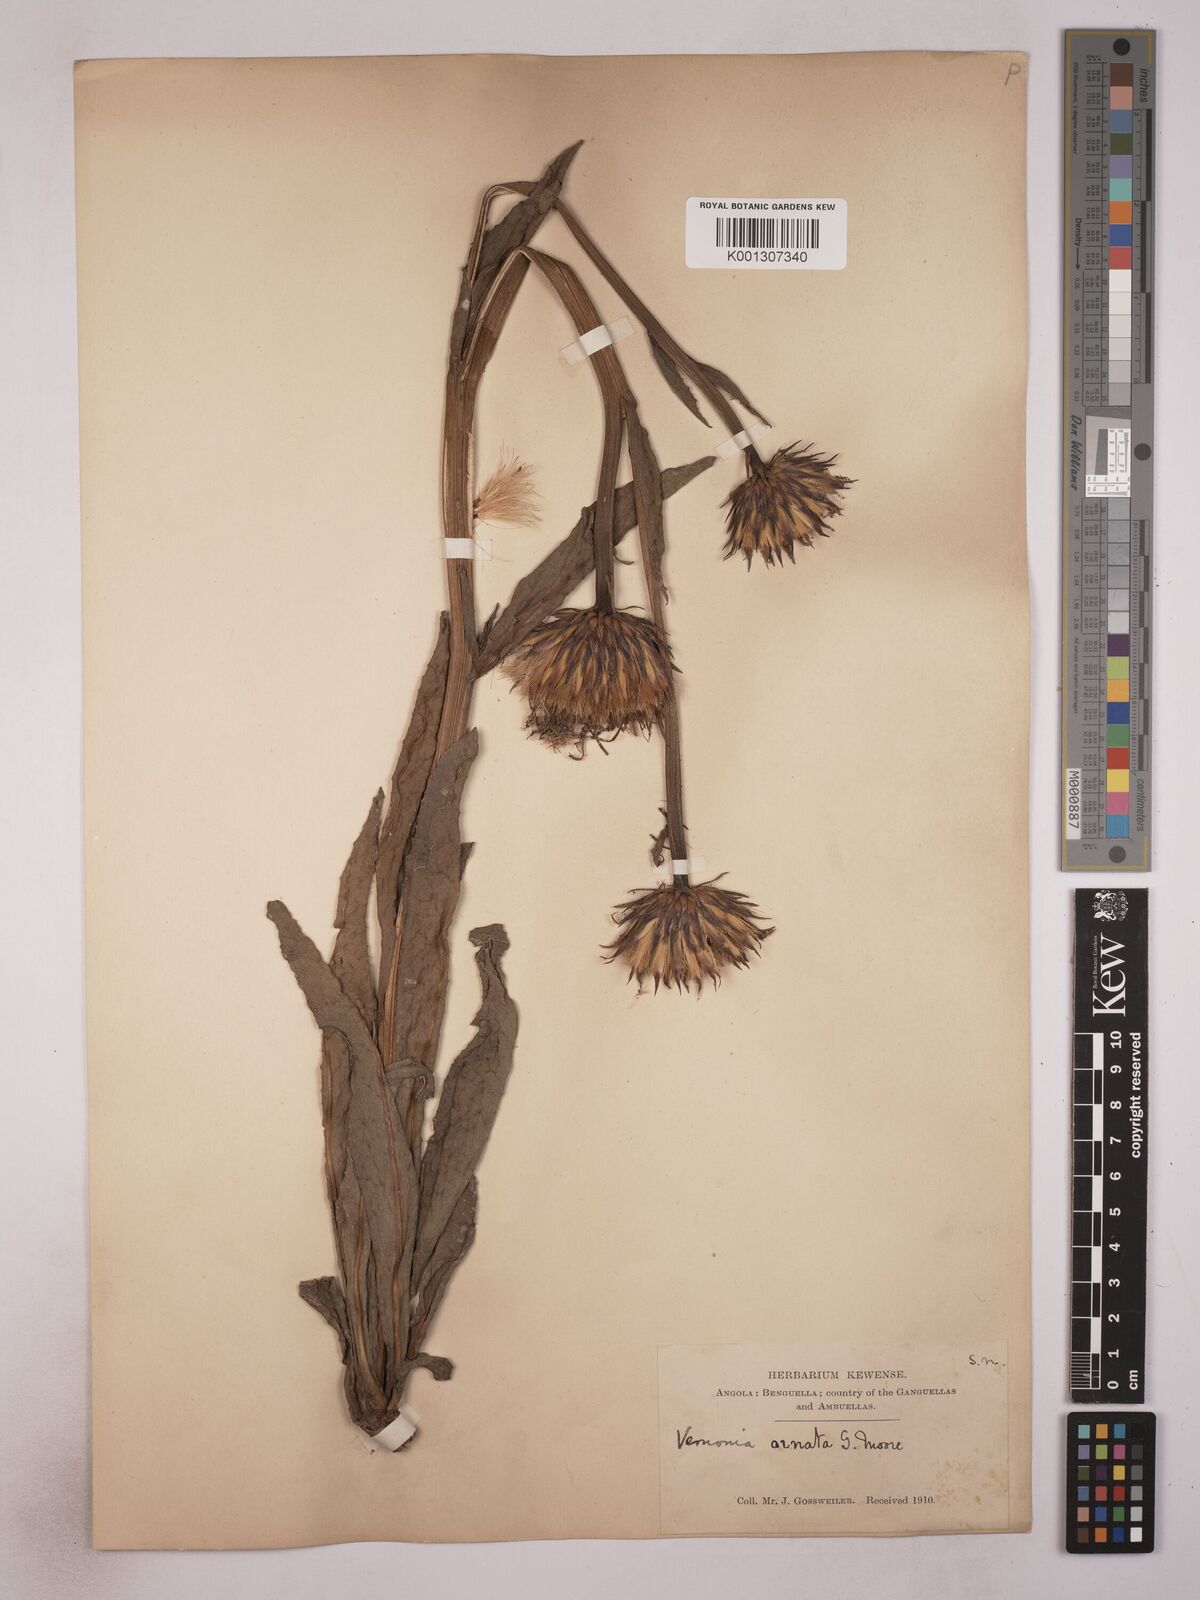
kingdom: Plantae
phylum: Tracheophyta
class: Magnoliopsida
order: Asterales
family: Asteraceae
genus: Vernonia
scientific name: Vernonia ornata
